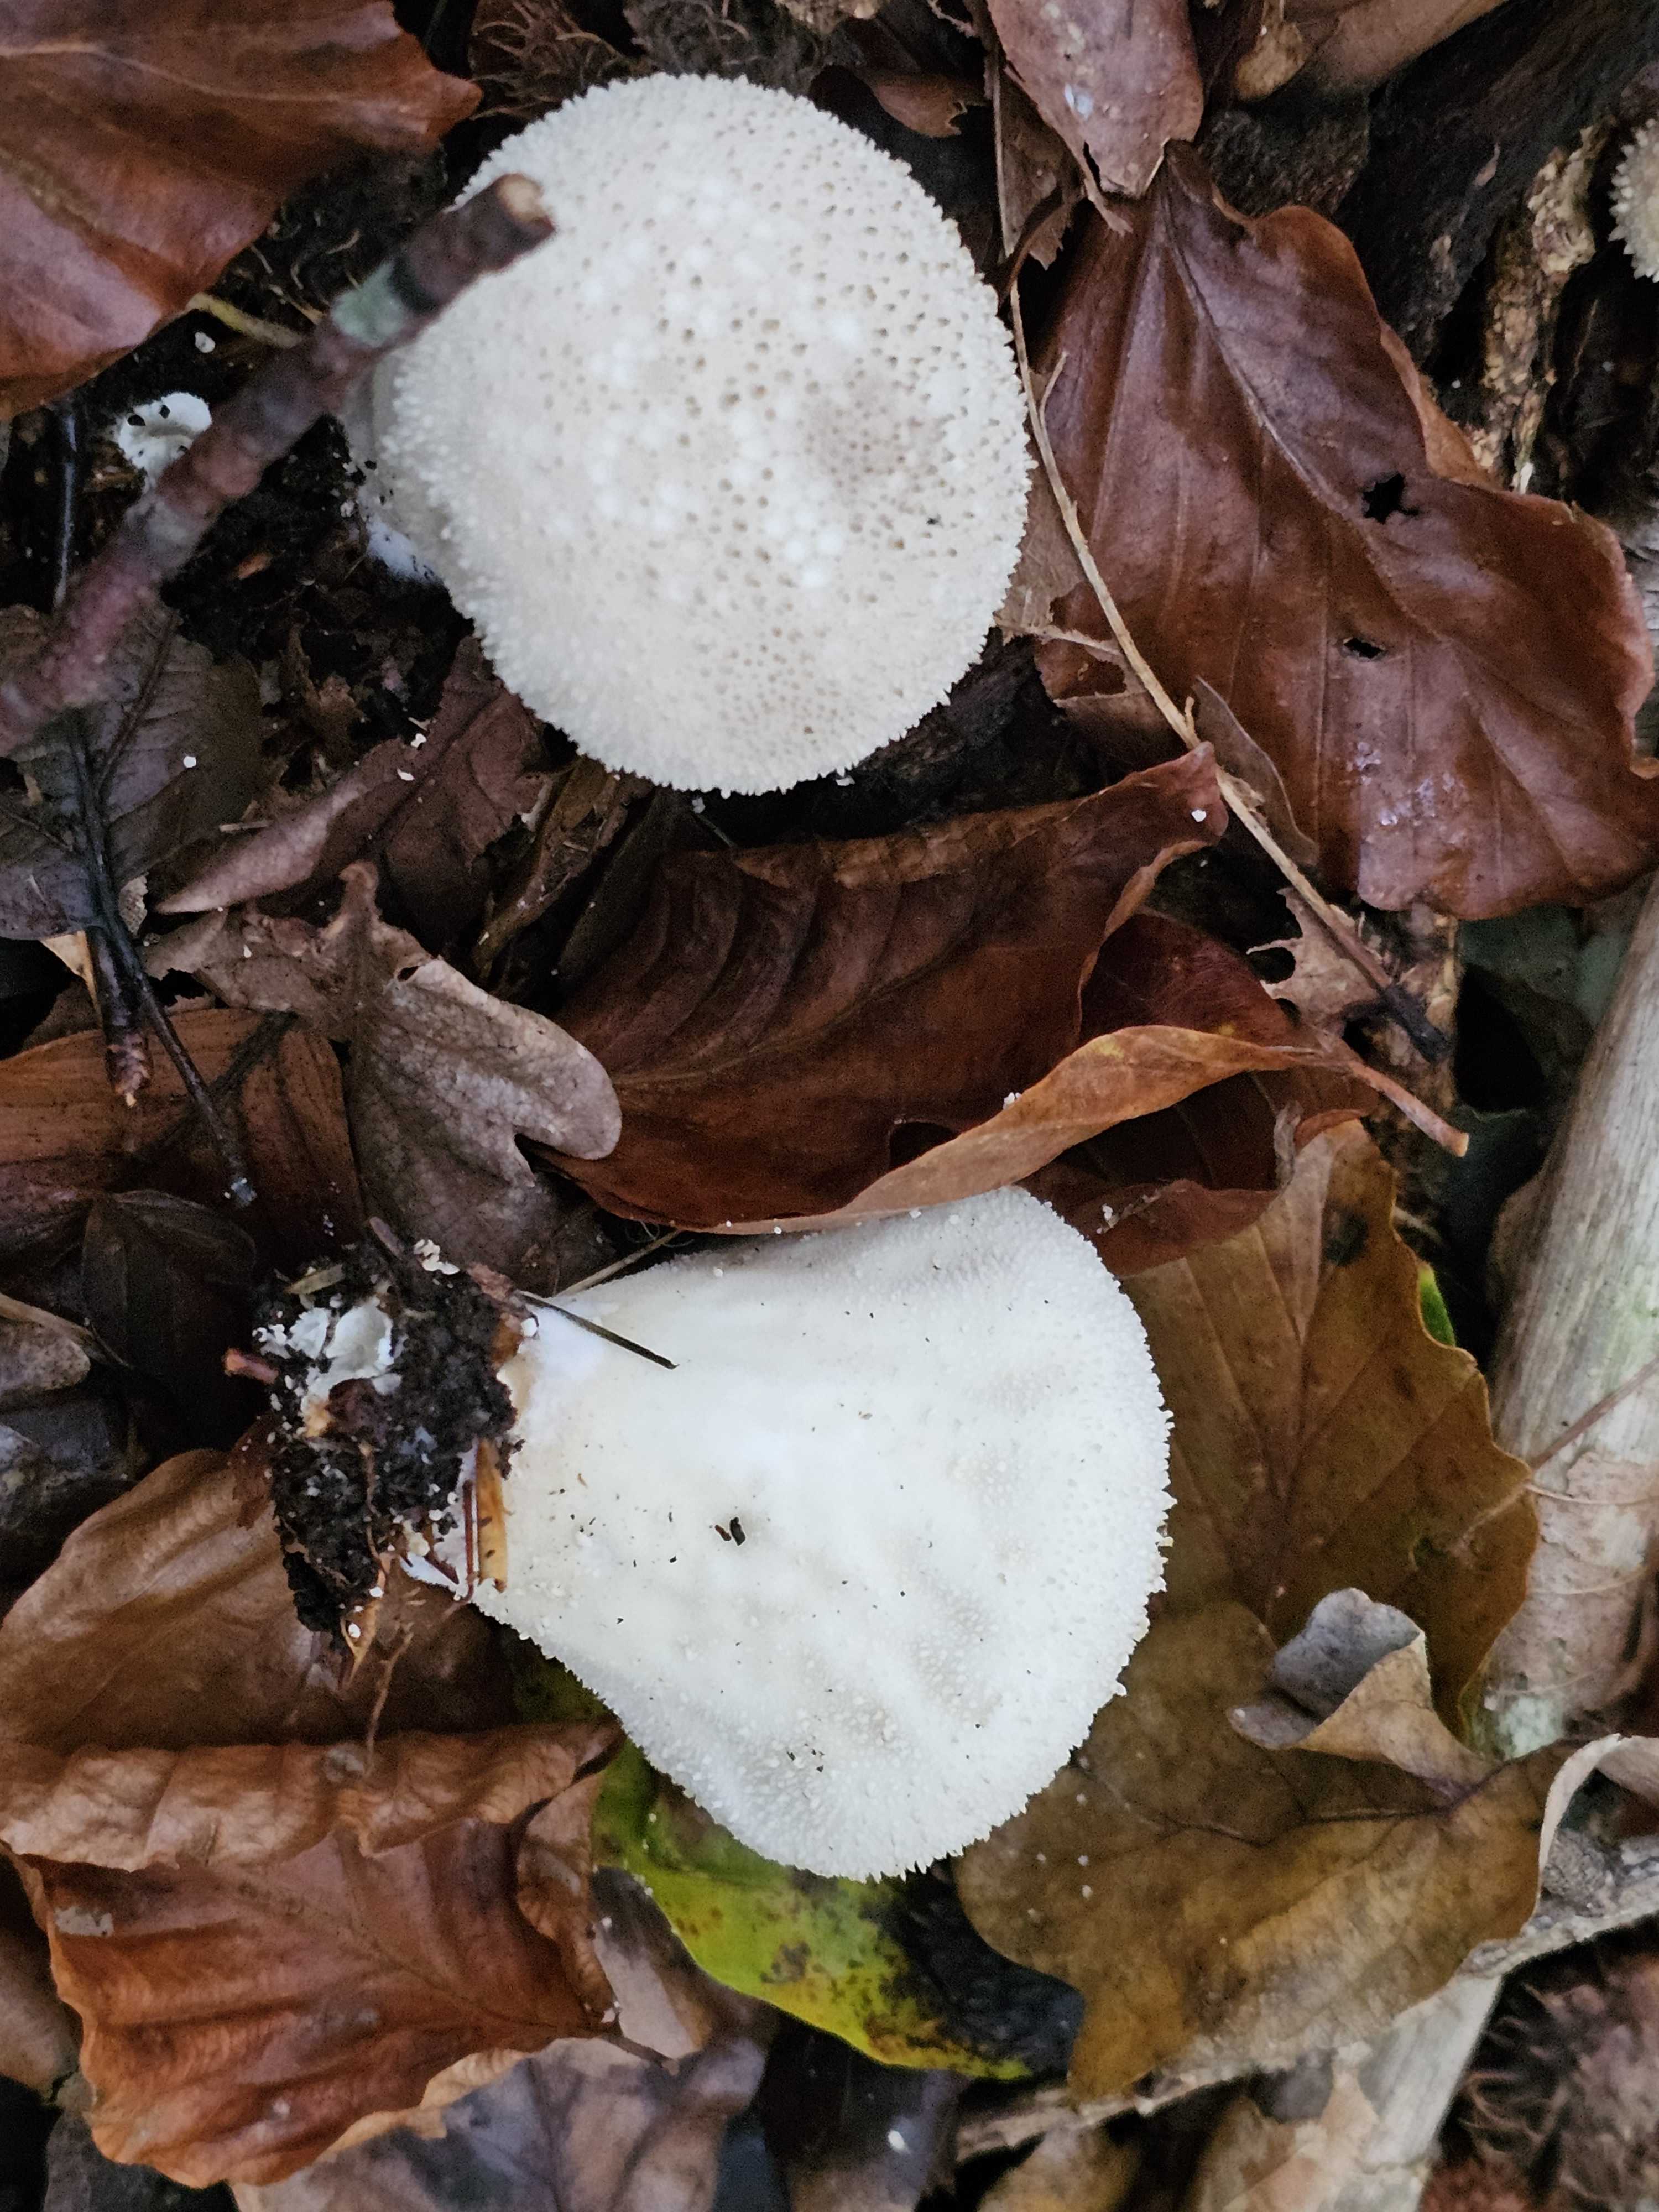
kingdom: Fungi
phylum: Basidiomycota
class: Agaricomycetes
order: Agaricales
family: Lycoperdaceae
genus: Lycoperdon
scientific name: Lycoperdon perlatum
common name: krystal-støvbold
